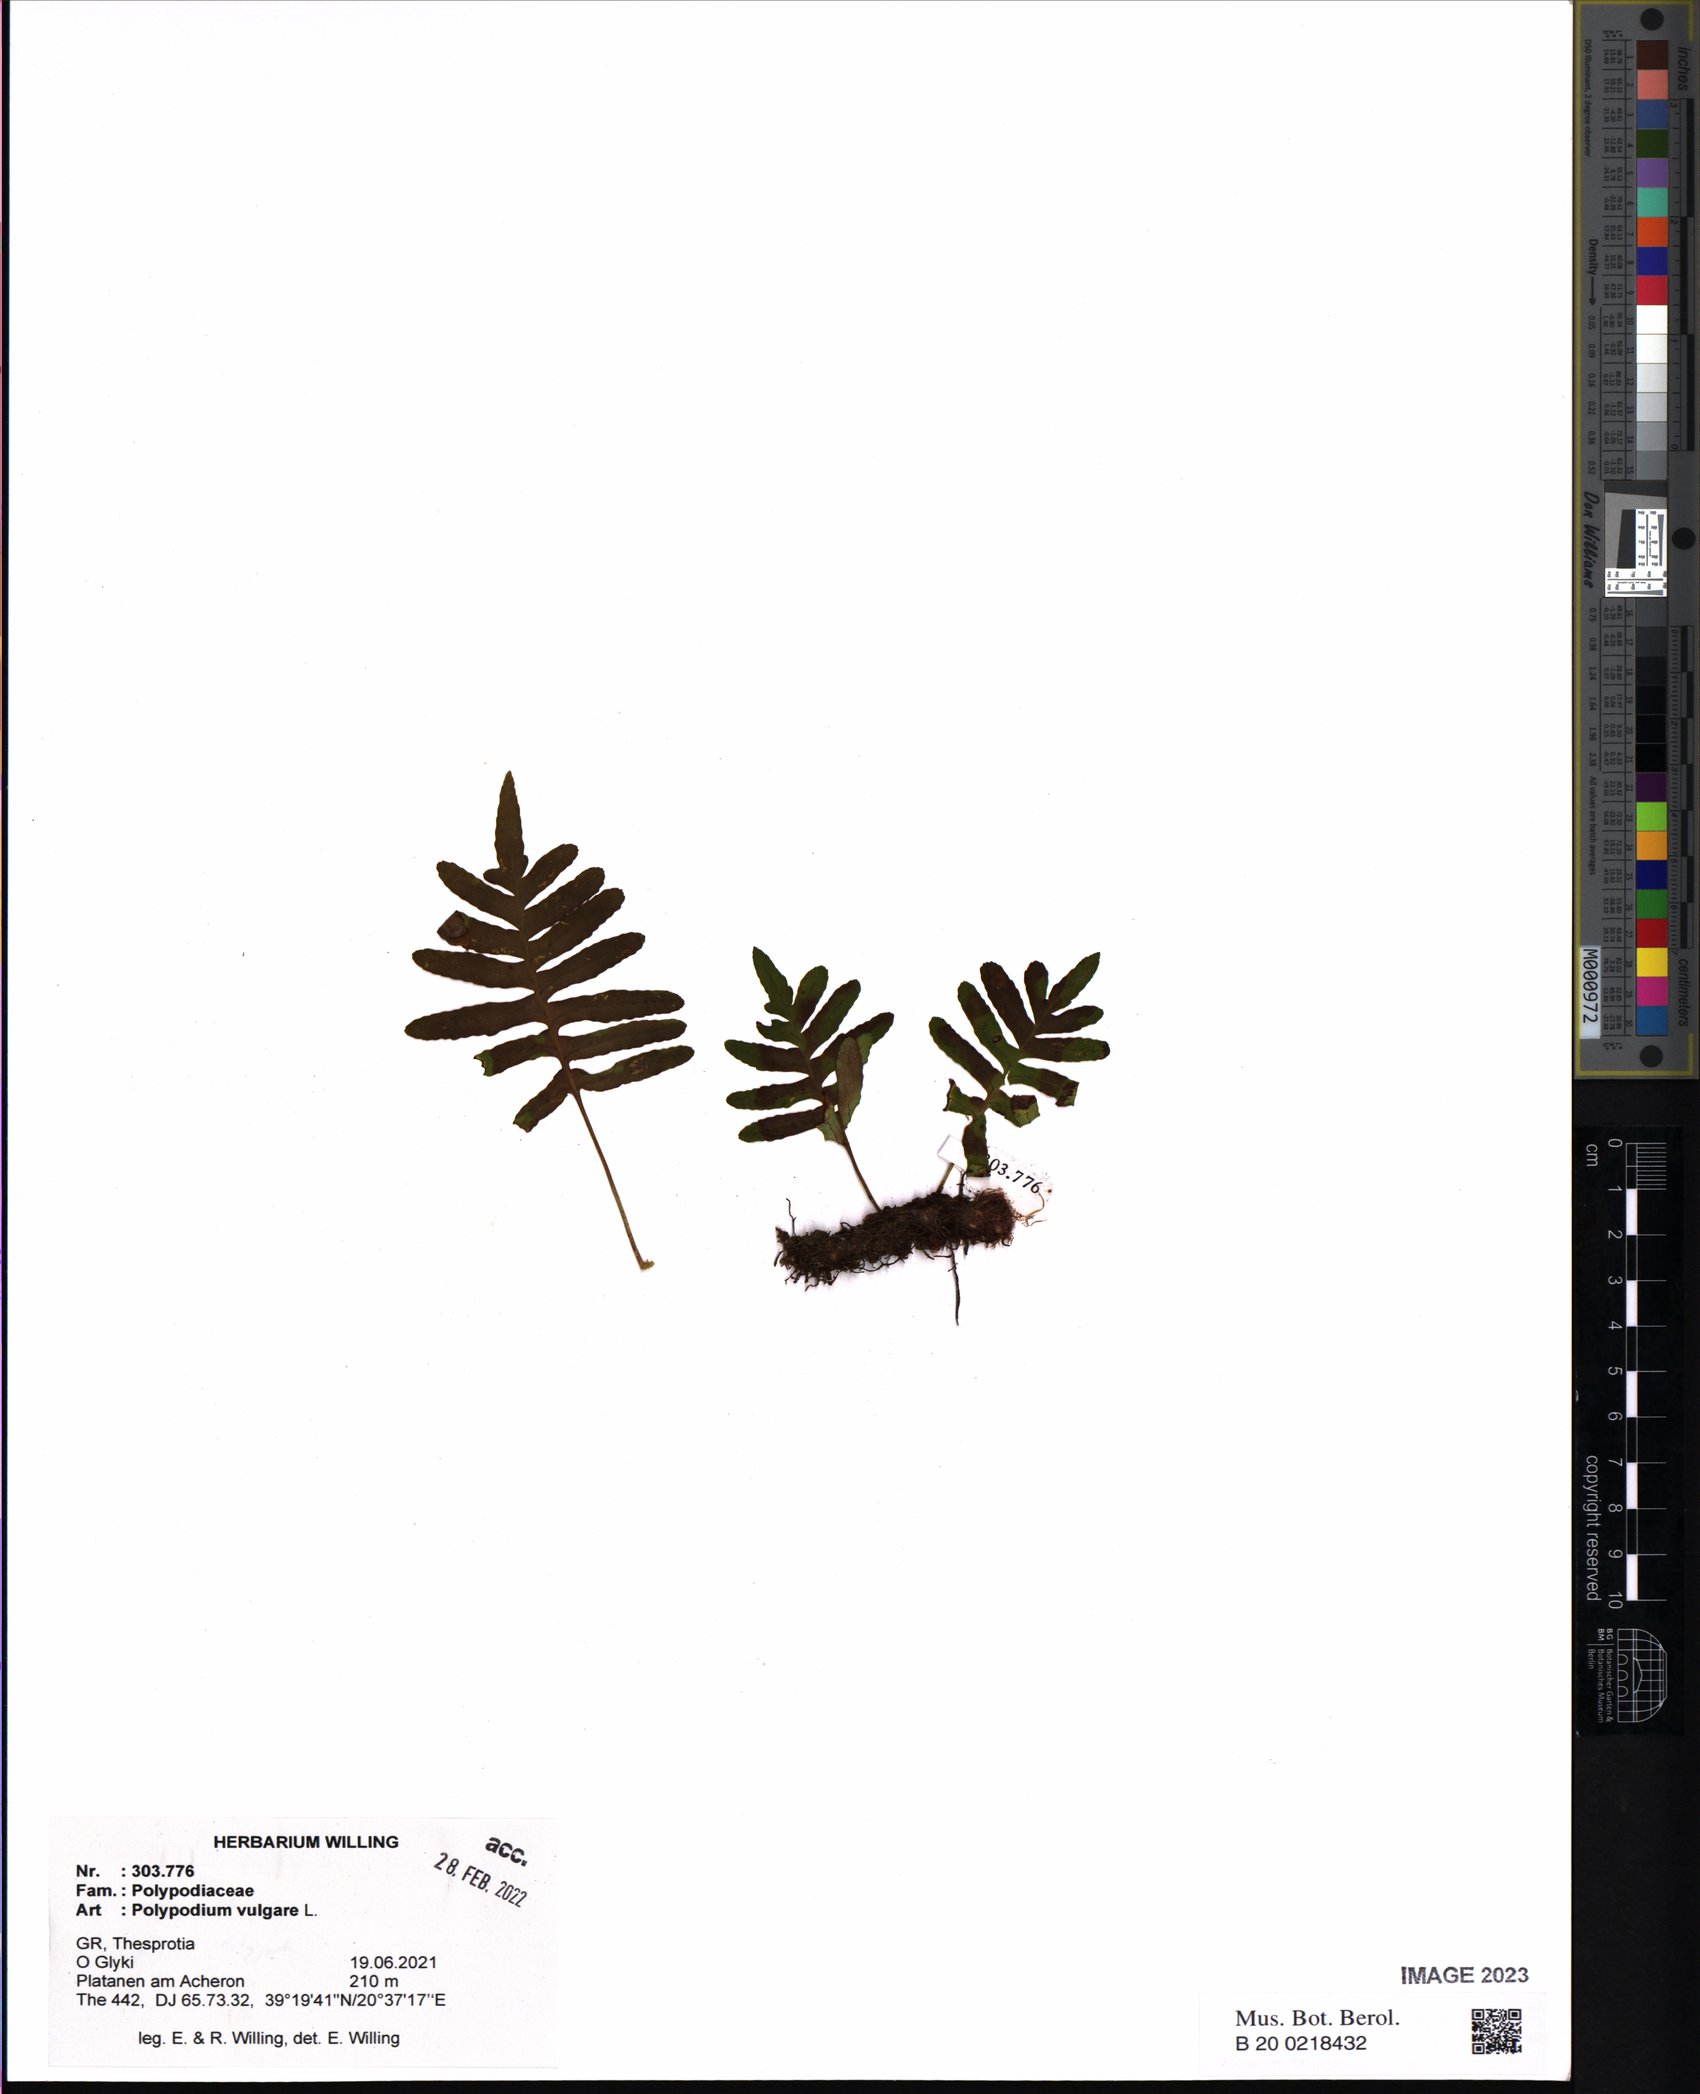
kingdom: Plantae
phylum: Tracheophyta
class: Polypodiopsida
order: Polypodiales
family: Polypodiaceae
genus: Polypodium
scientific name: Polypodium vulgare
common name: Common polypody
